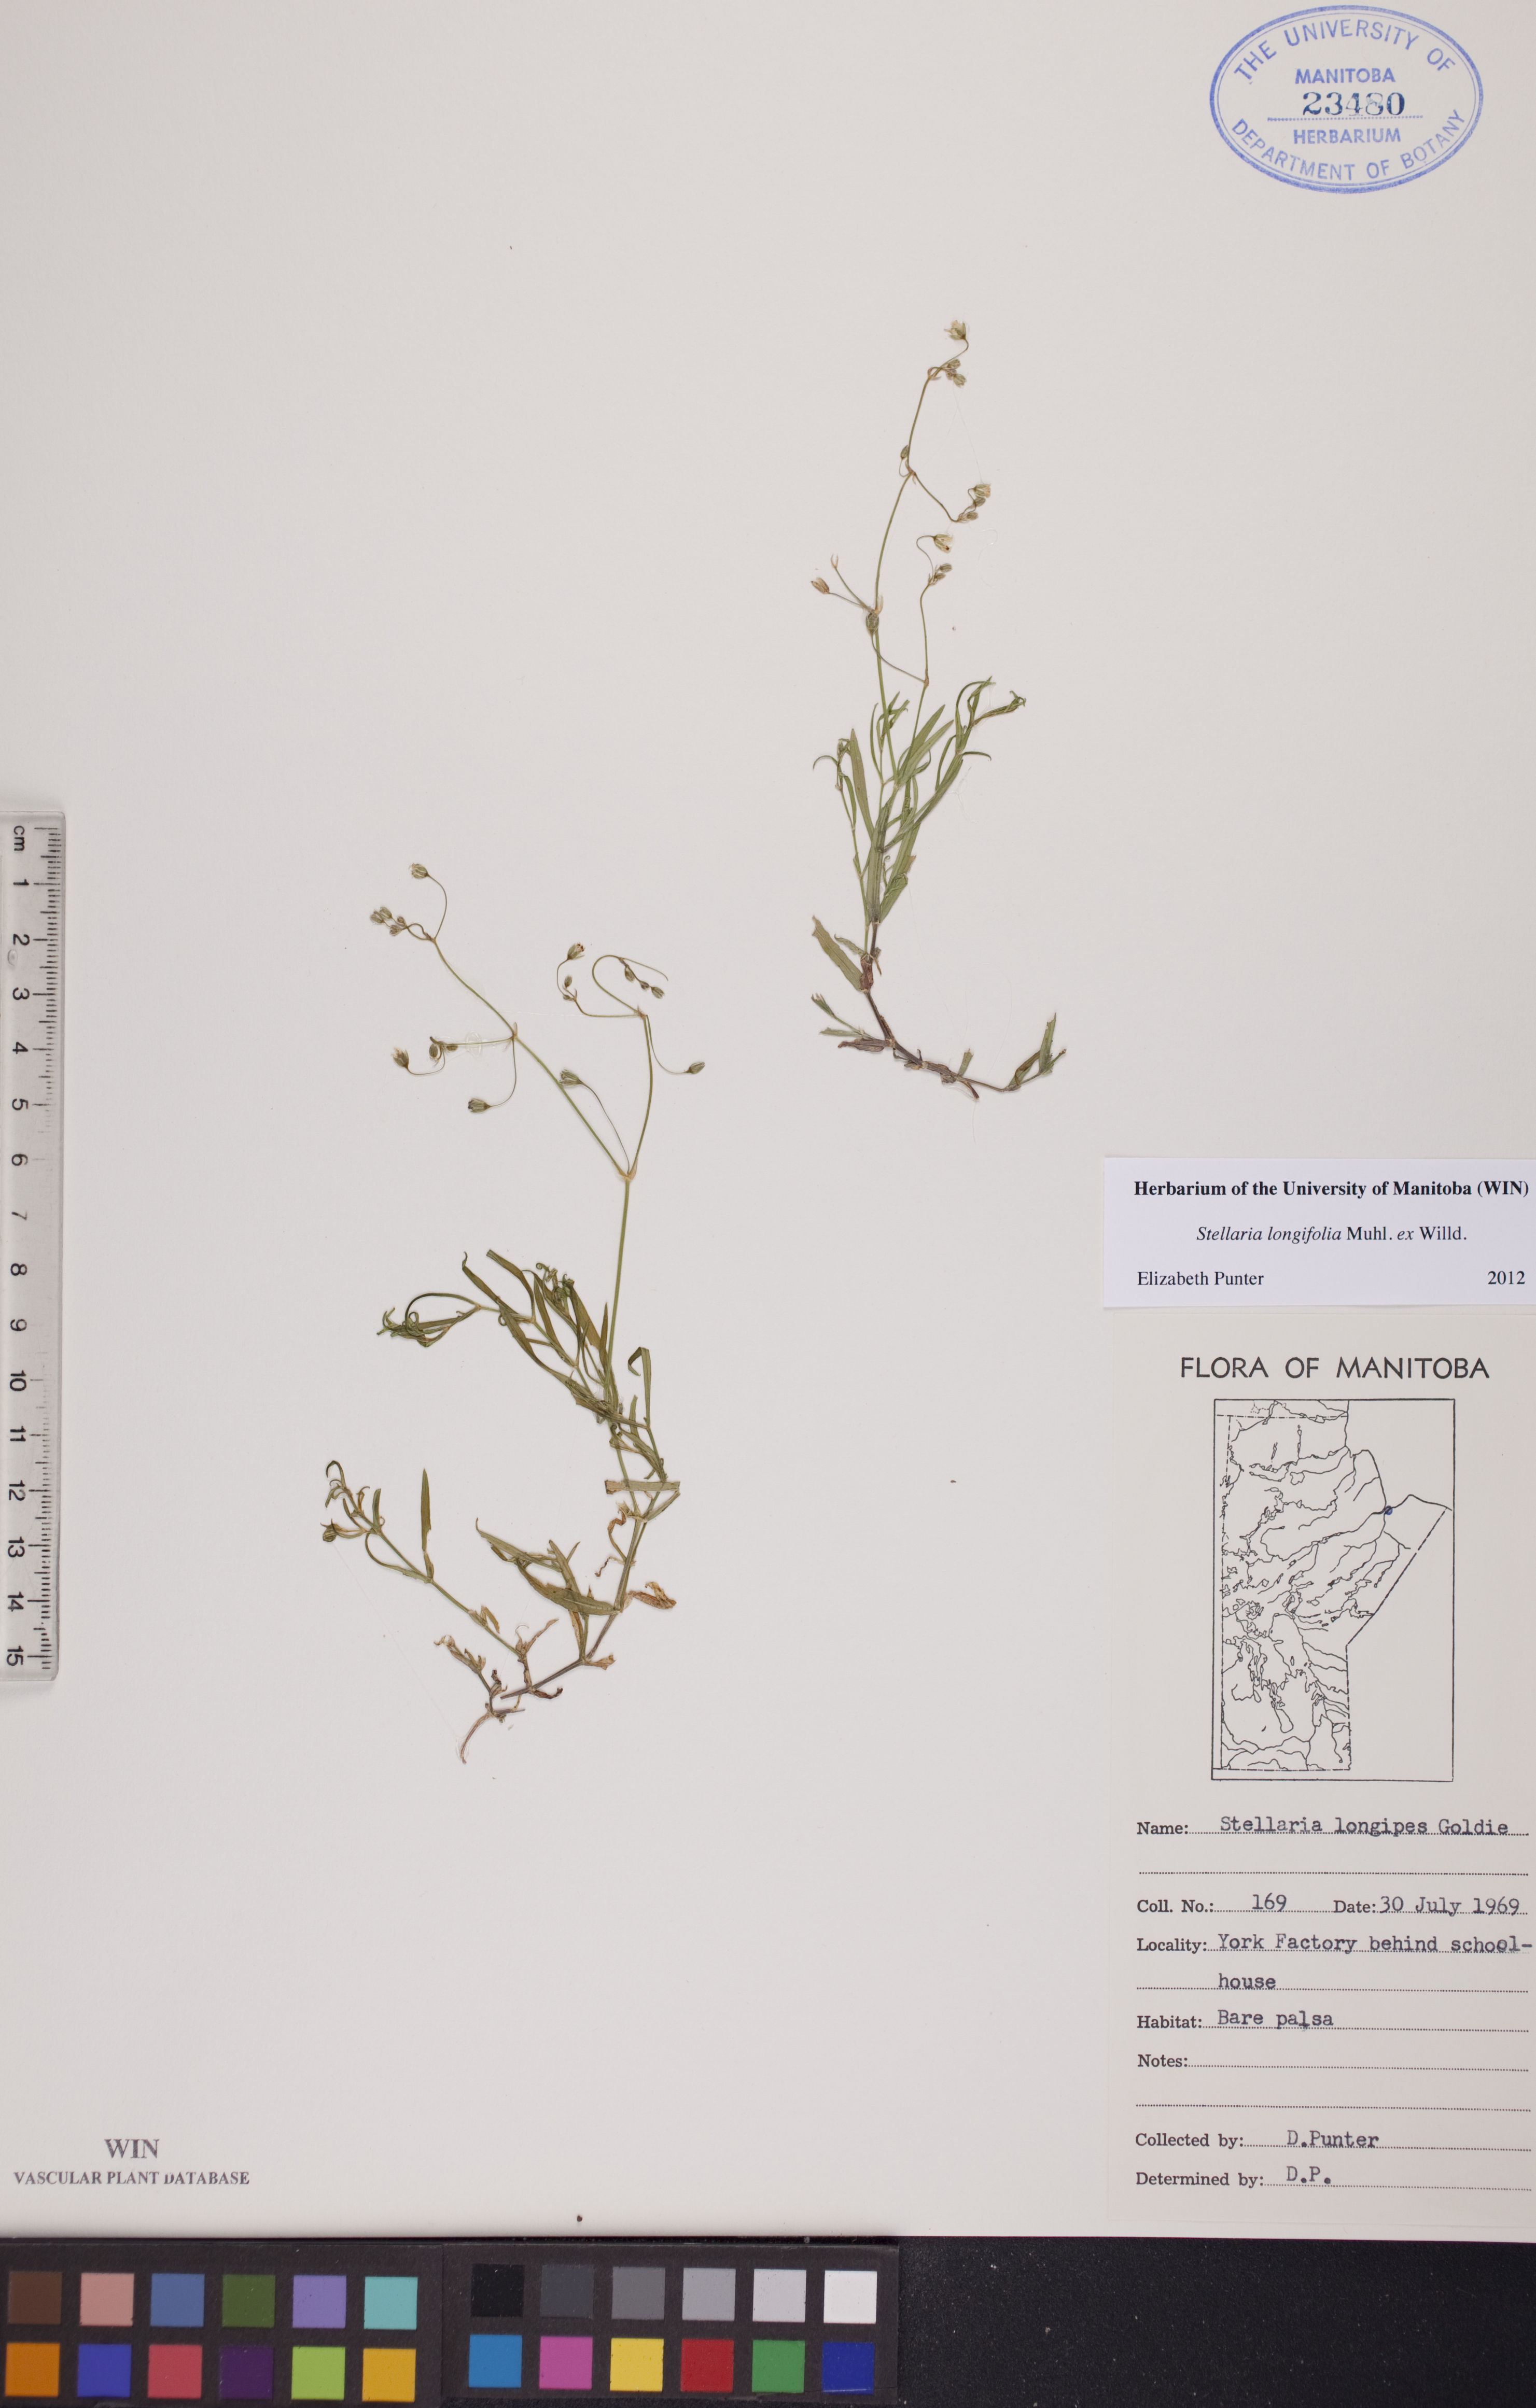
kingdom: Plantae
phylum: Tracheophyta
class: Magnoliopsida
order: Caryophyllales
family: Caryophyllaceae
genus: Stellaria
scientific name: Stellaria longifolia
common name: Long-leaved chickweed
